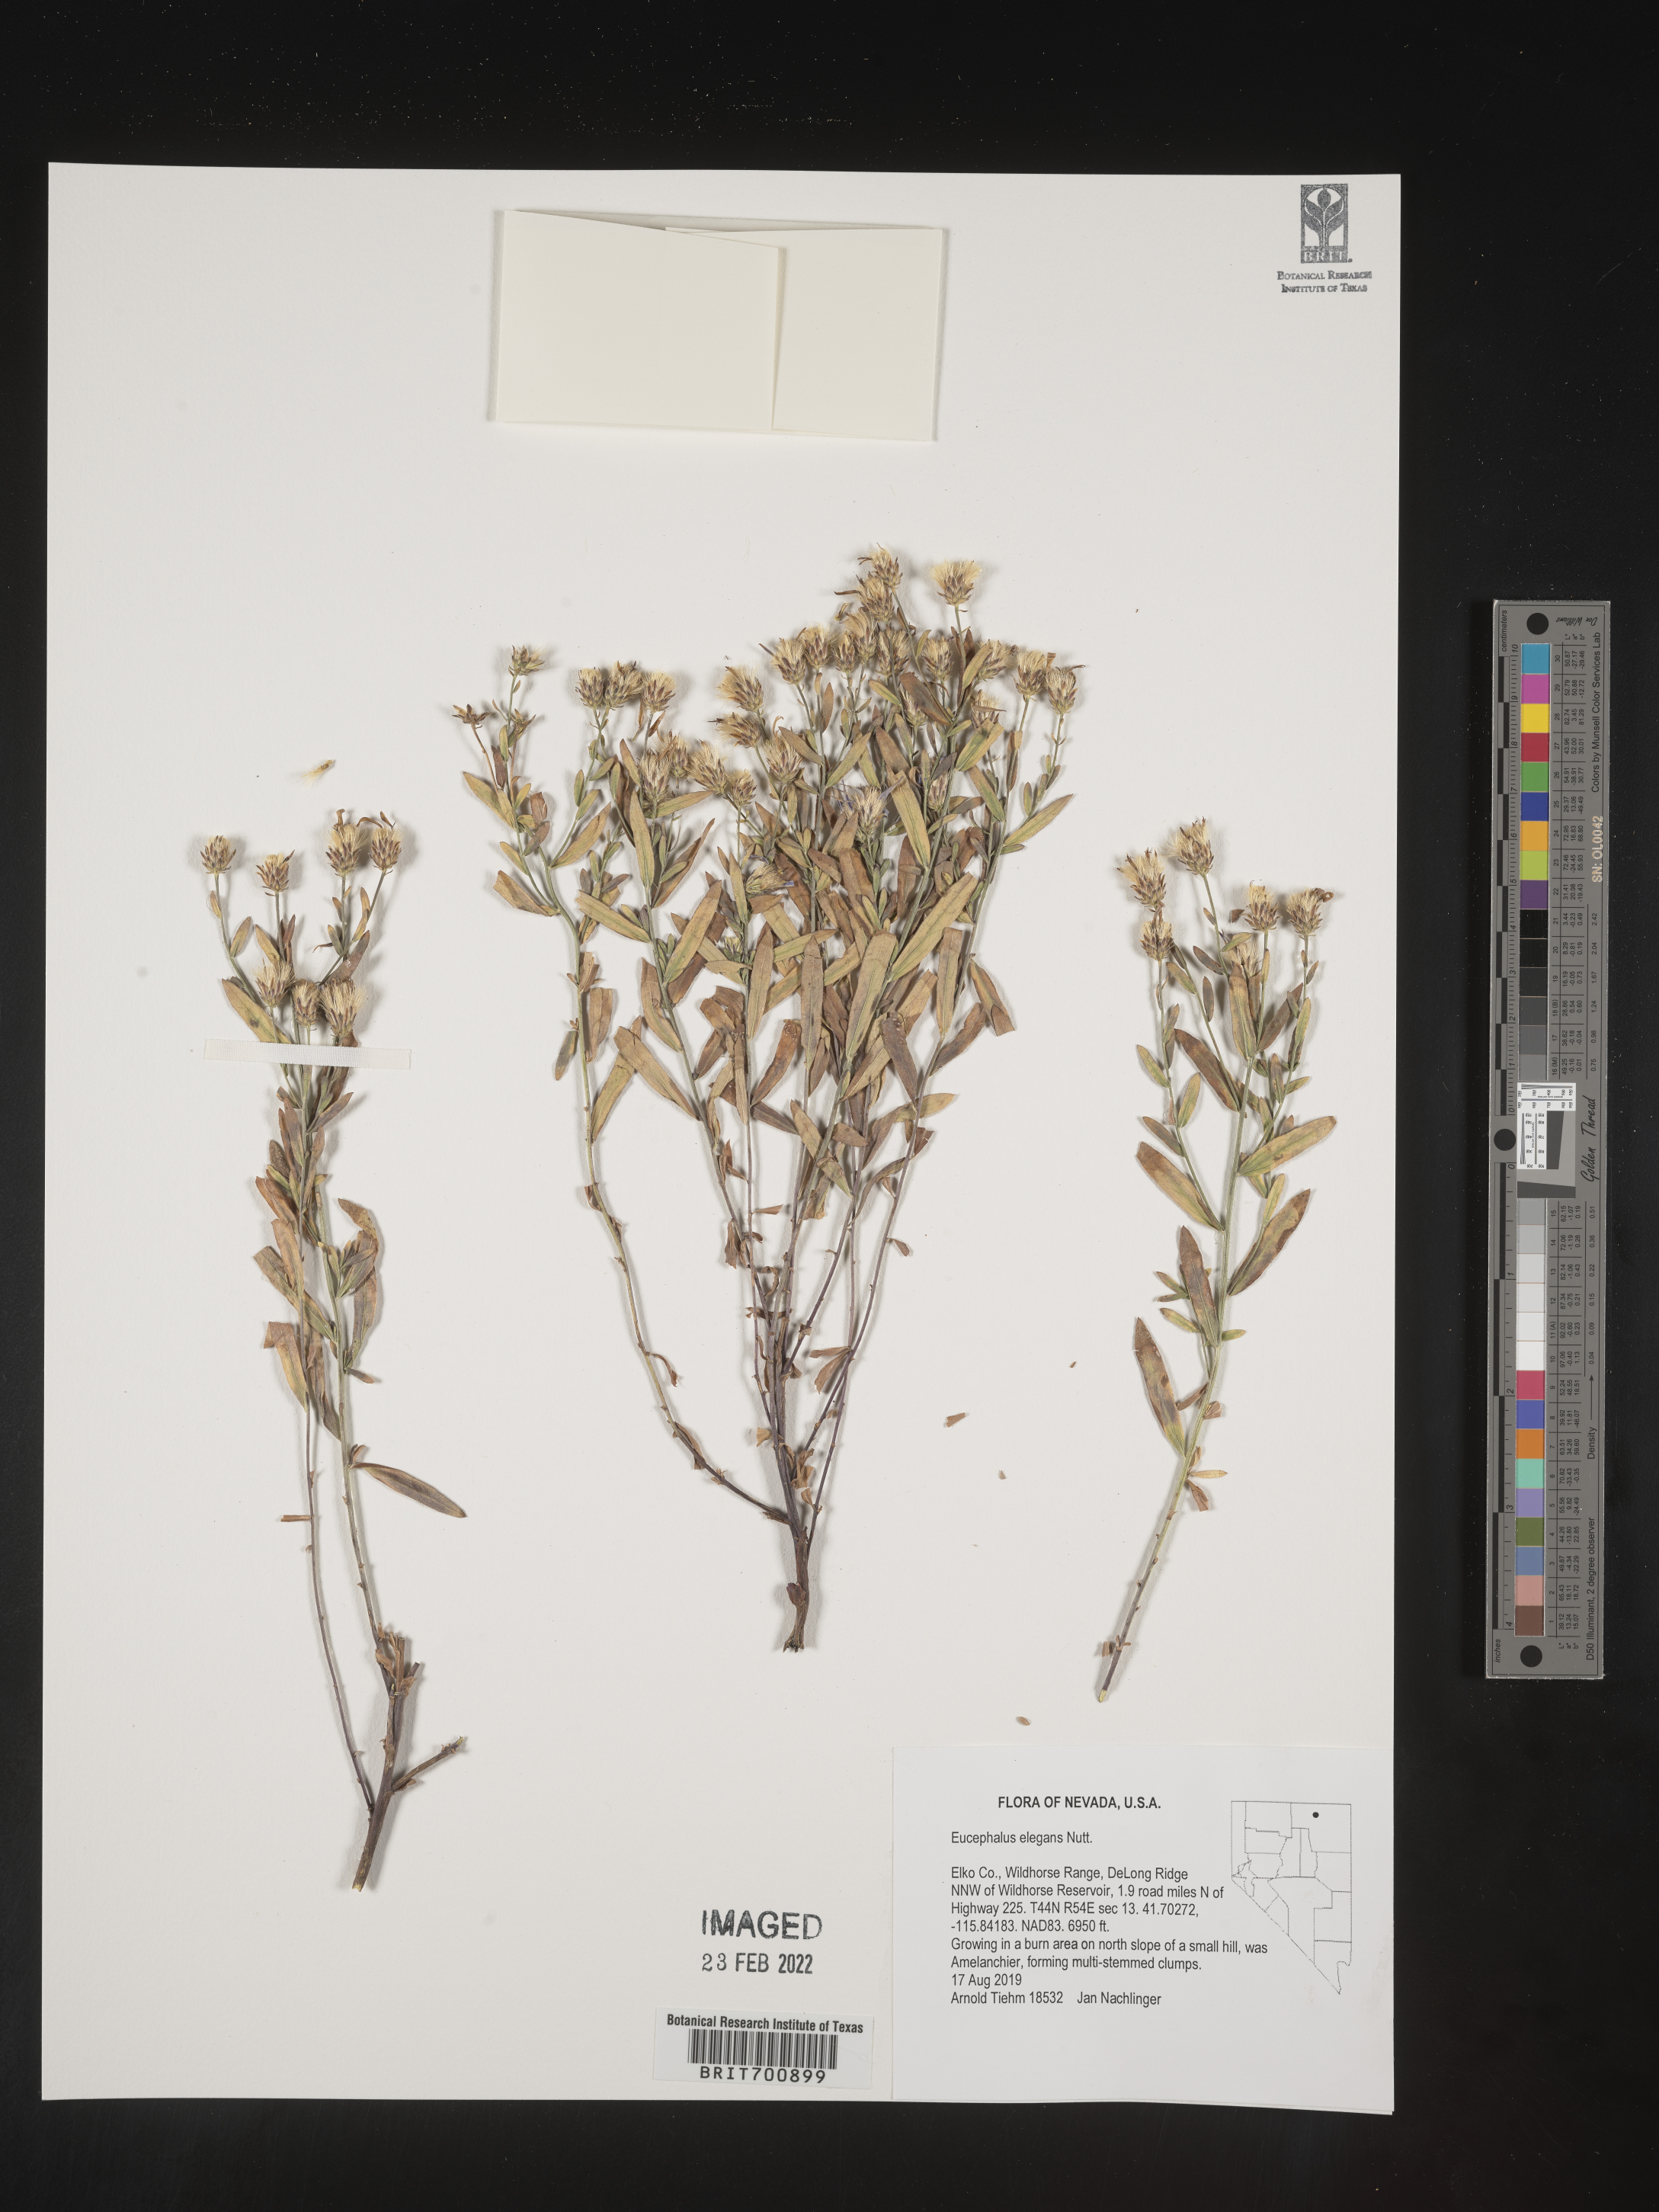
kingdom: Plantae
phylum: Tracheophyta
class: Magnoliopsida
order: Asterales
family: Asteraceae
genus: Doellingeria
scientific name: Doellingeria elegans
